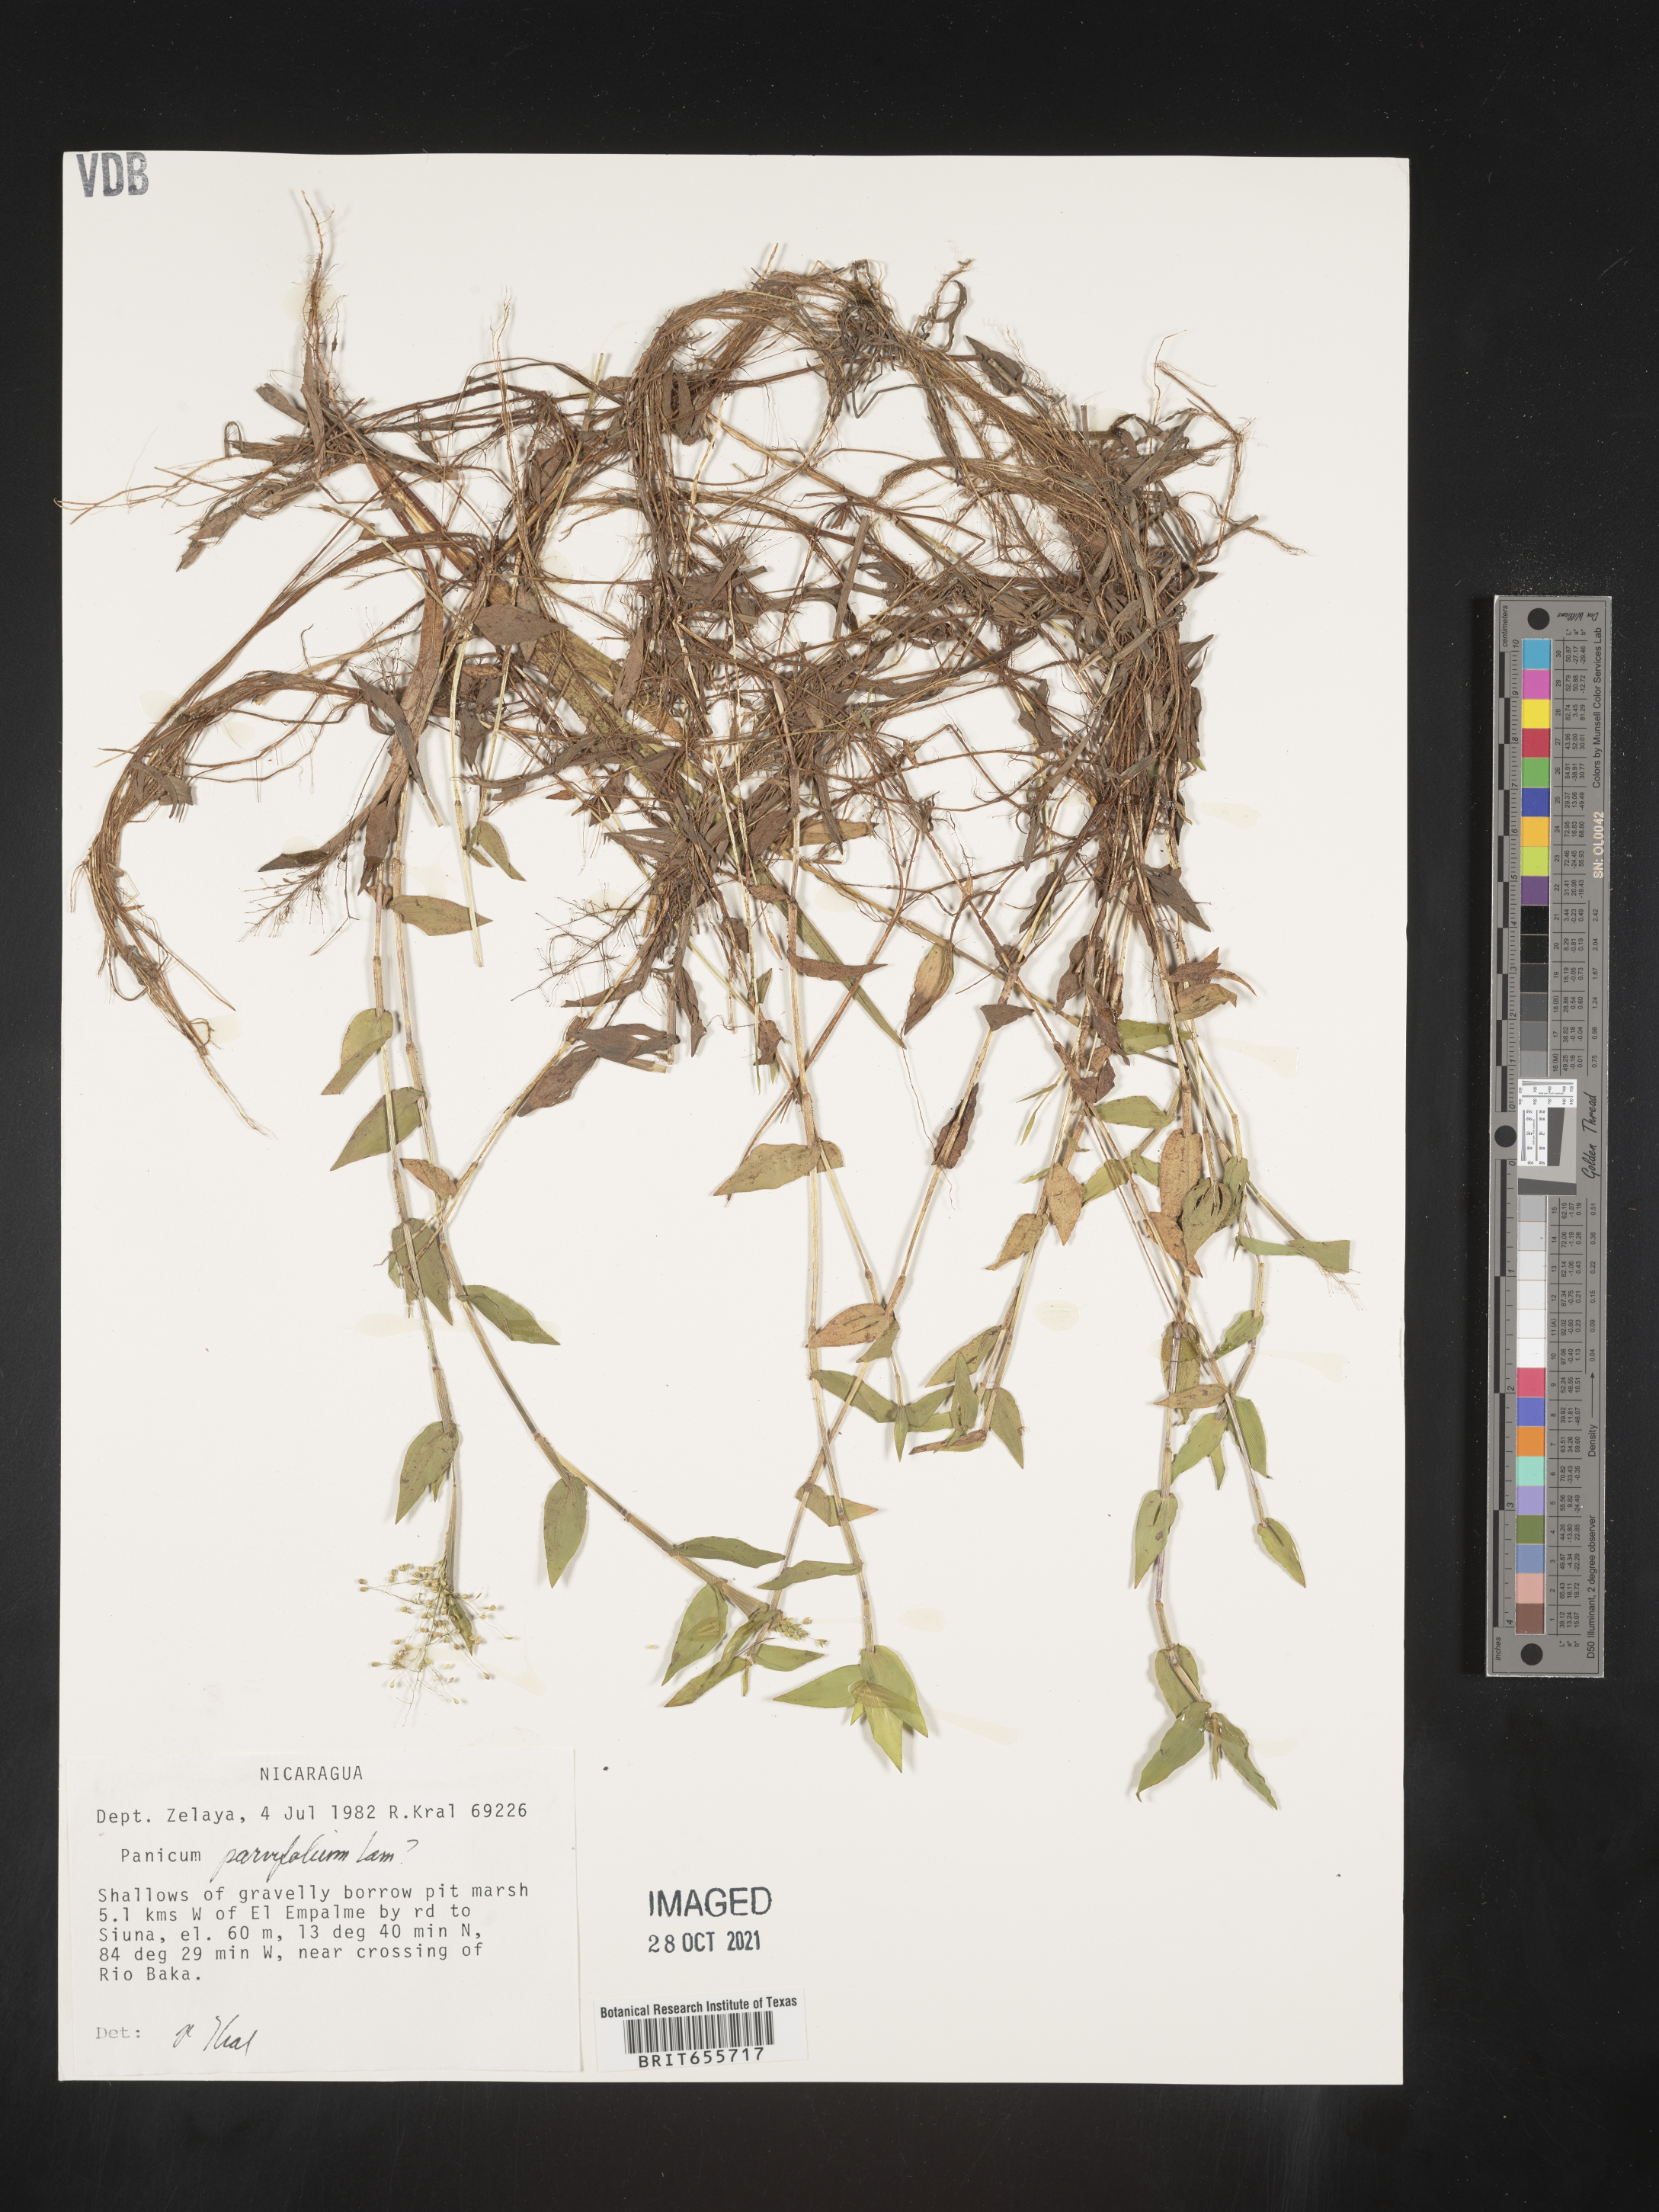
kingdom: Plantae
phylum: Tracheophyta
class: Liliopsida
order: Poales
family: Poaceae
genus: Panicum
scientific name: Panicum
